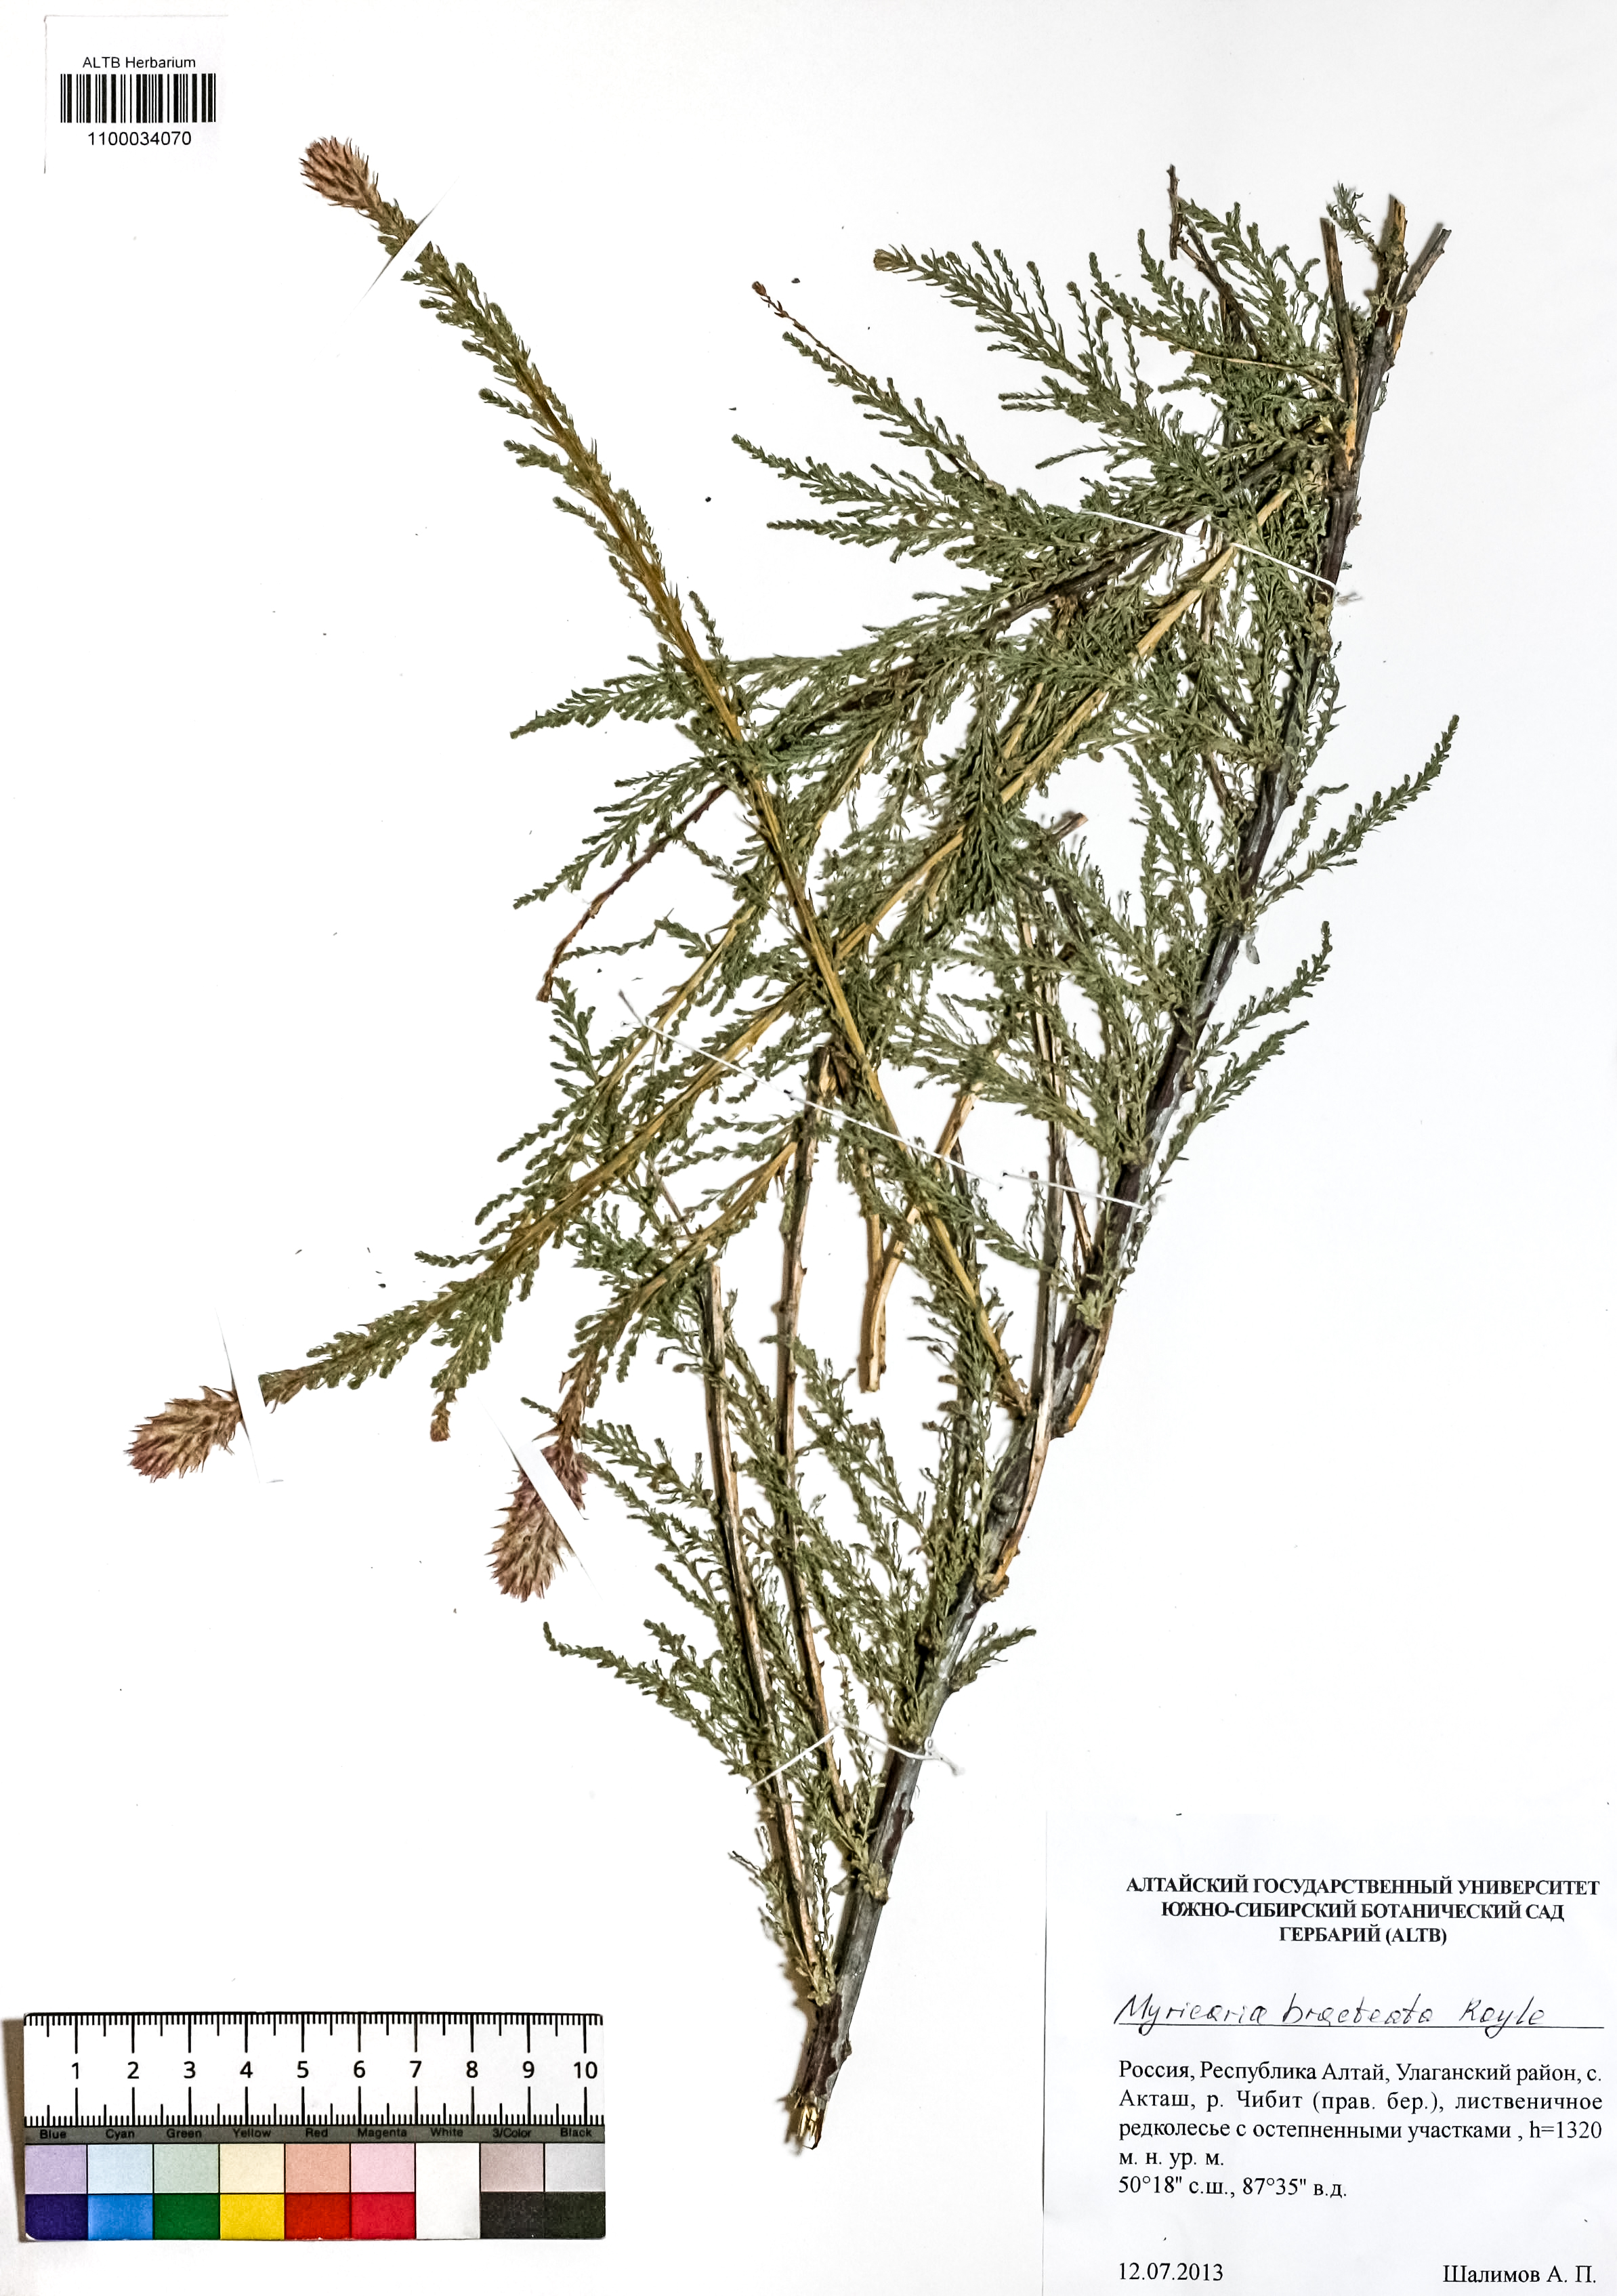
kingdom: Plantae
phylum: Tracheophyta
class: Magnoliopsida
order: Caryophyllales
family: Tamaricaceae
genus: Myricaria
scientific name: Myricaria bracteata
